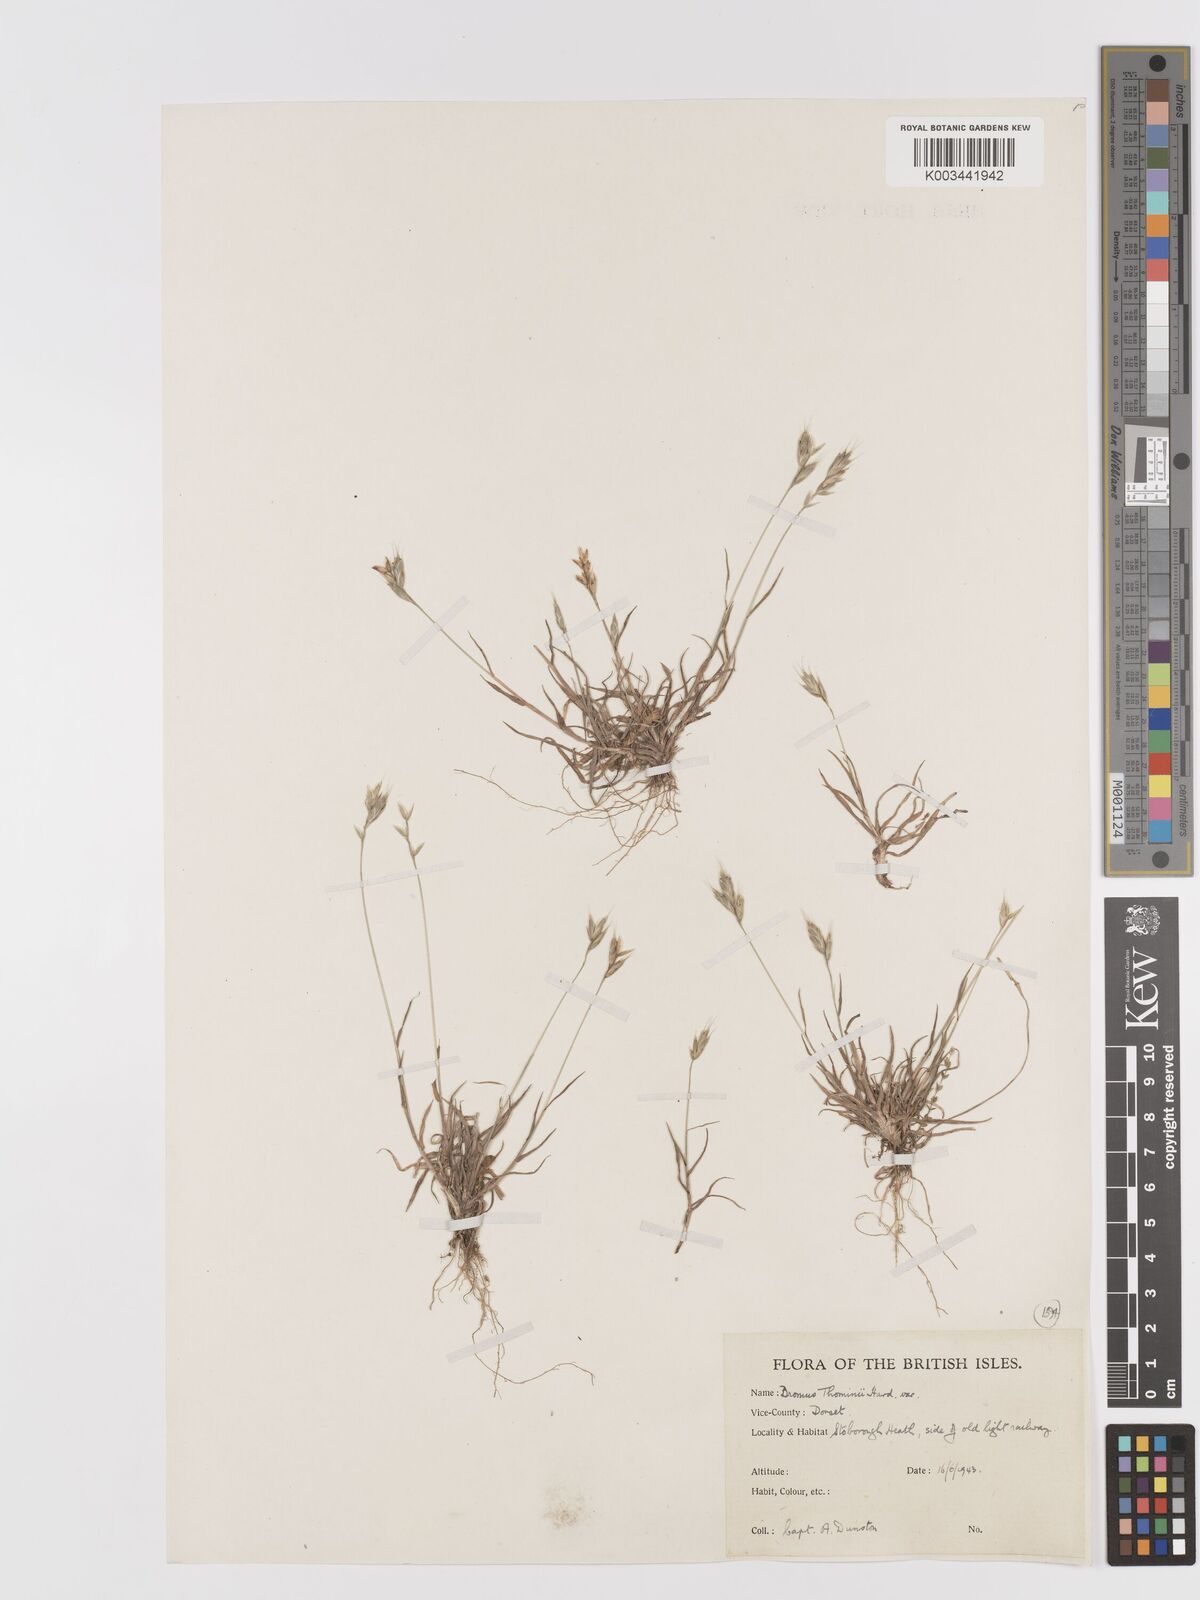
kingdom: Plantae
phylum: Tracheophyta
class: Liliopsida
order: Poales
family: Poaceae
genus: Bromus
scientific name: Bromus hordeaceus
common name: Soft brome
